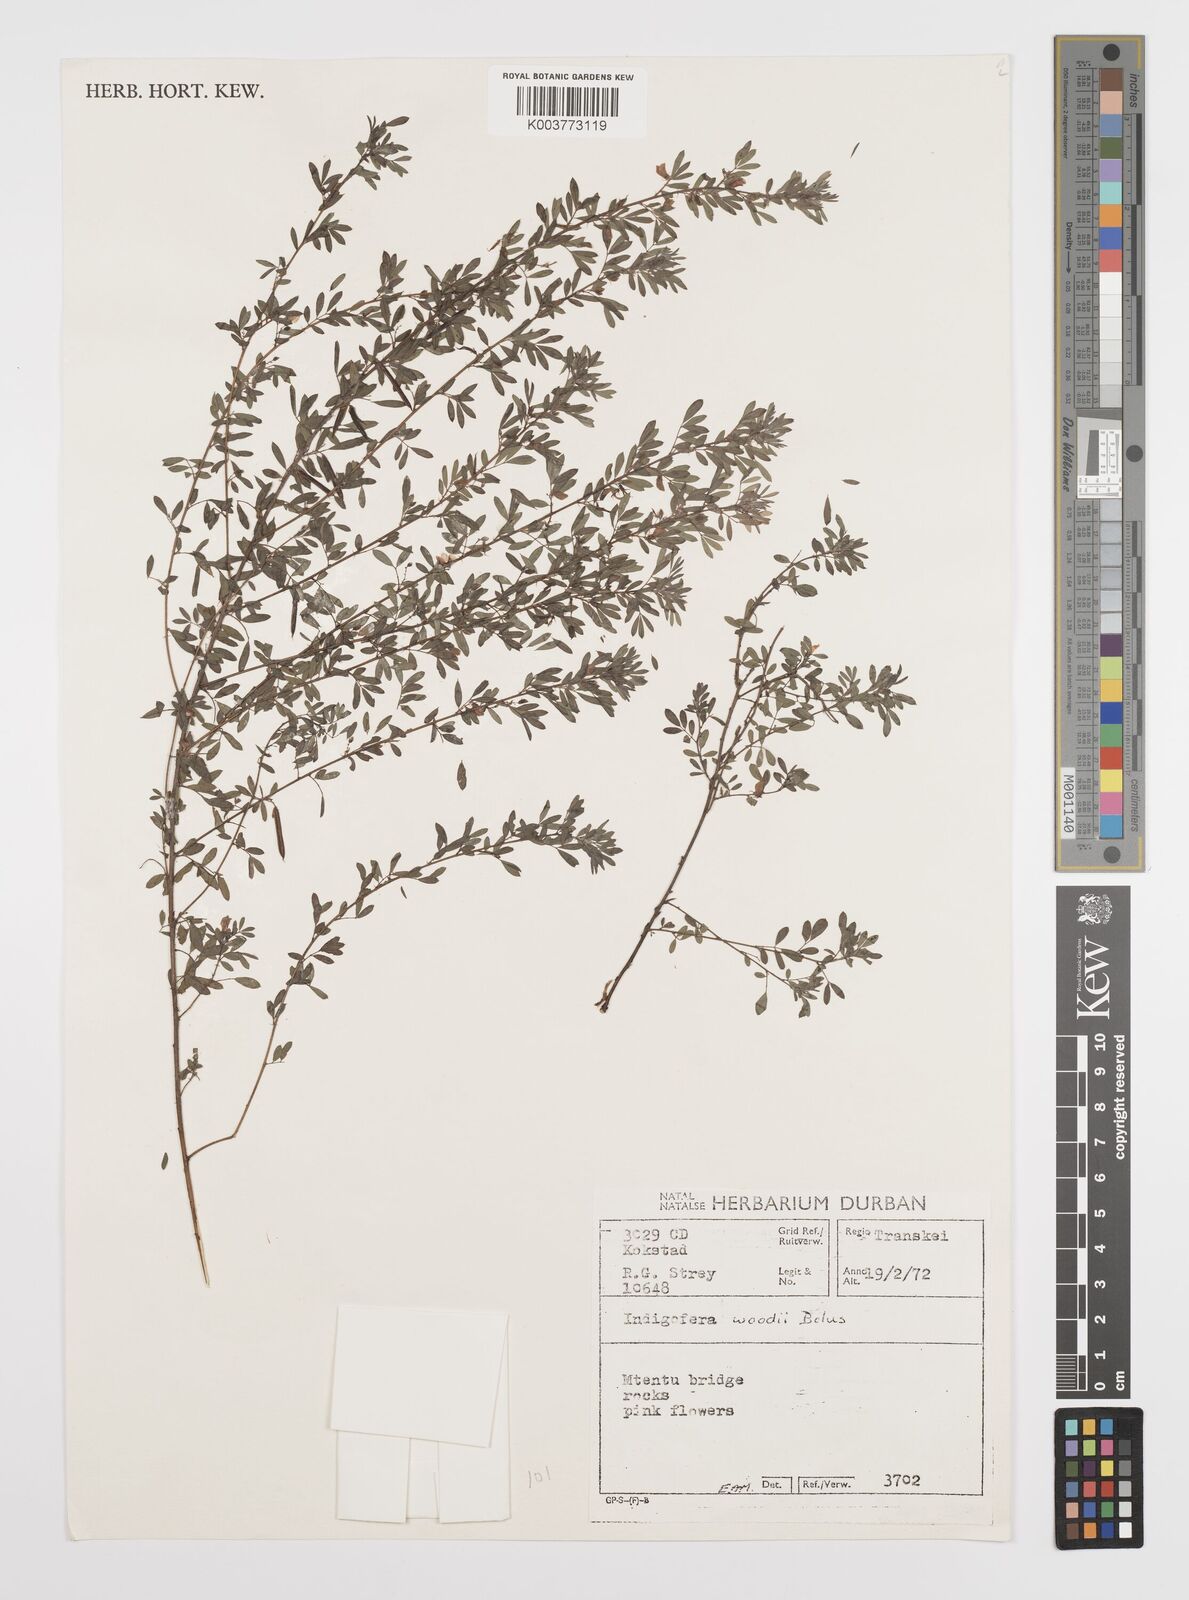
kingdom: Plantae
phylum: Tracheophyta
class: Magnoliopsida
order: Fabales
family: Fabaceae
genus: Indigofera
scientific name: Indigofera
